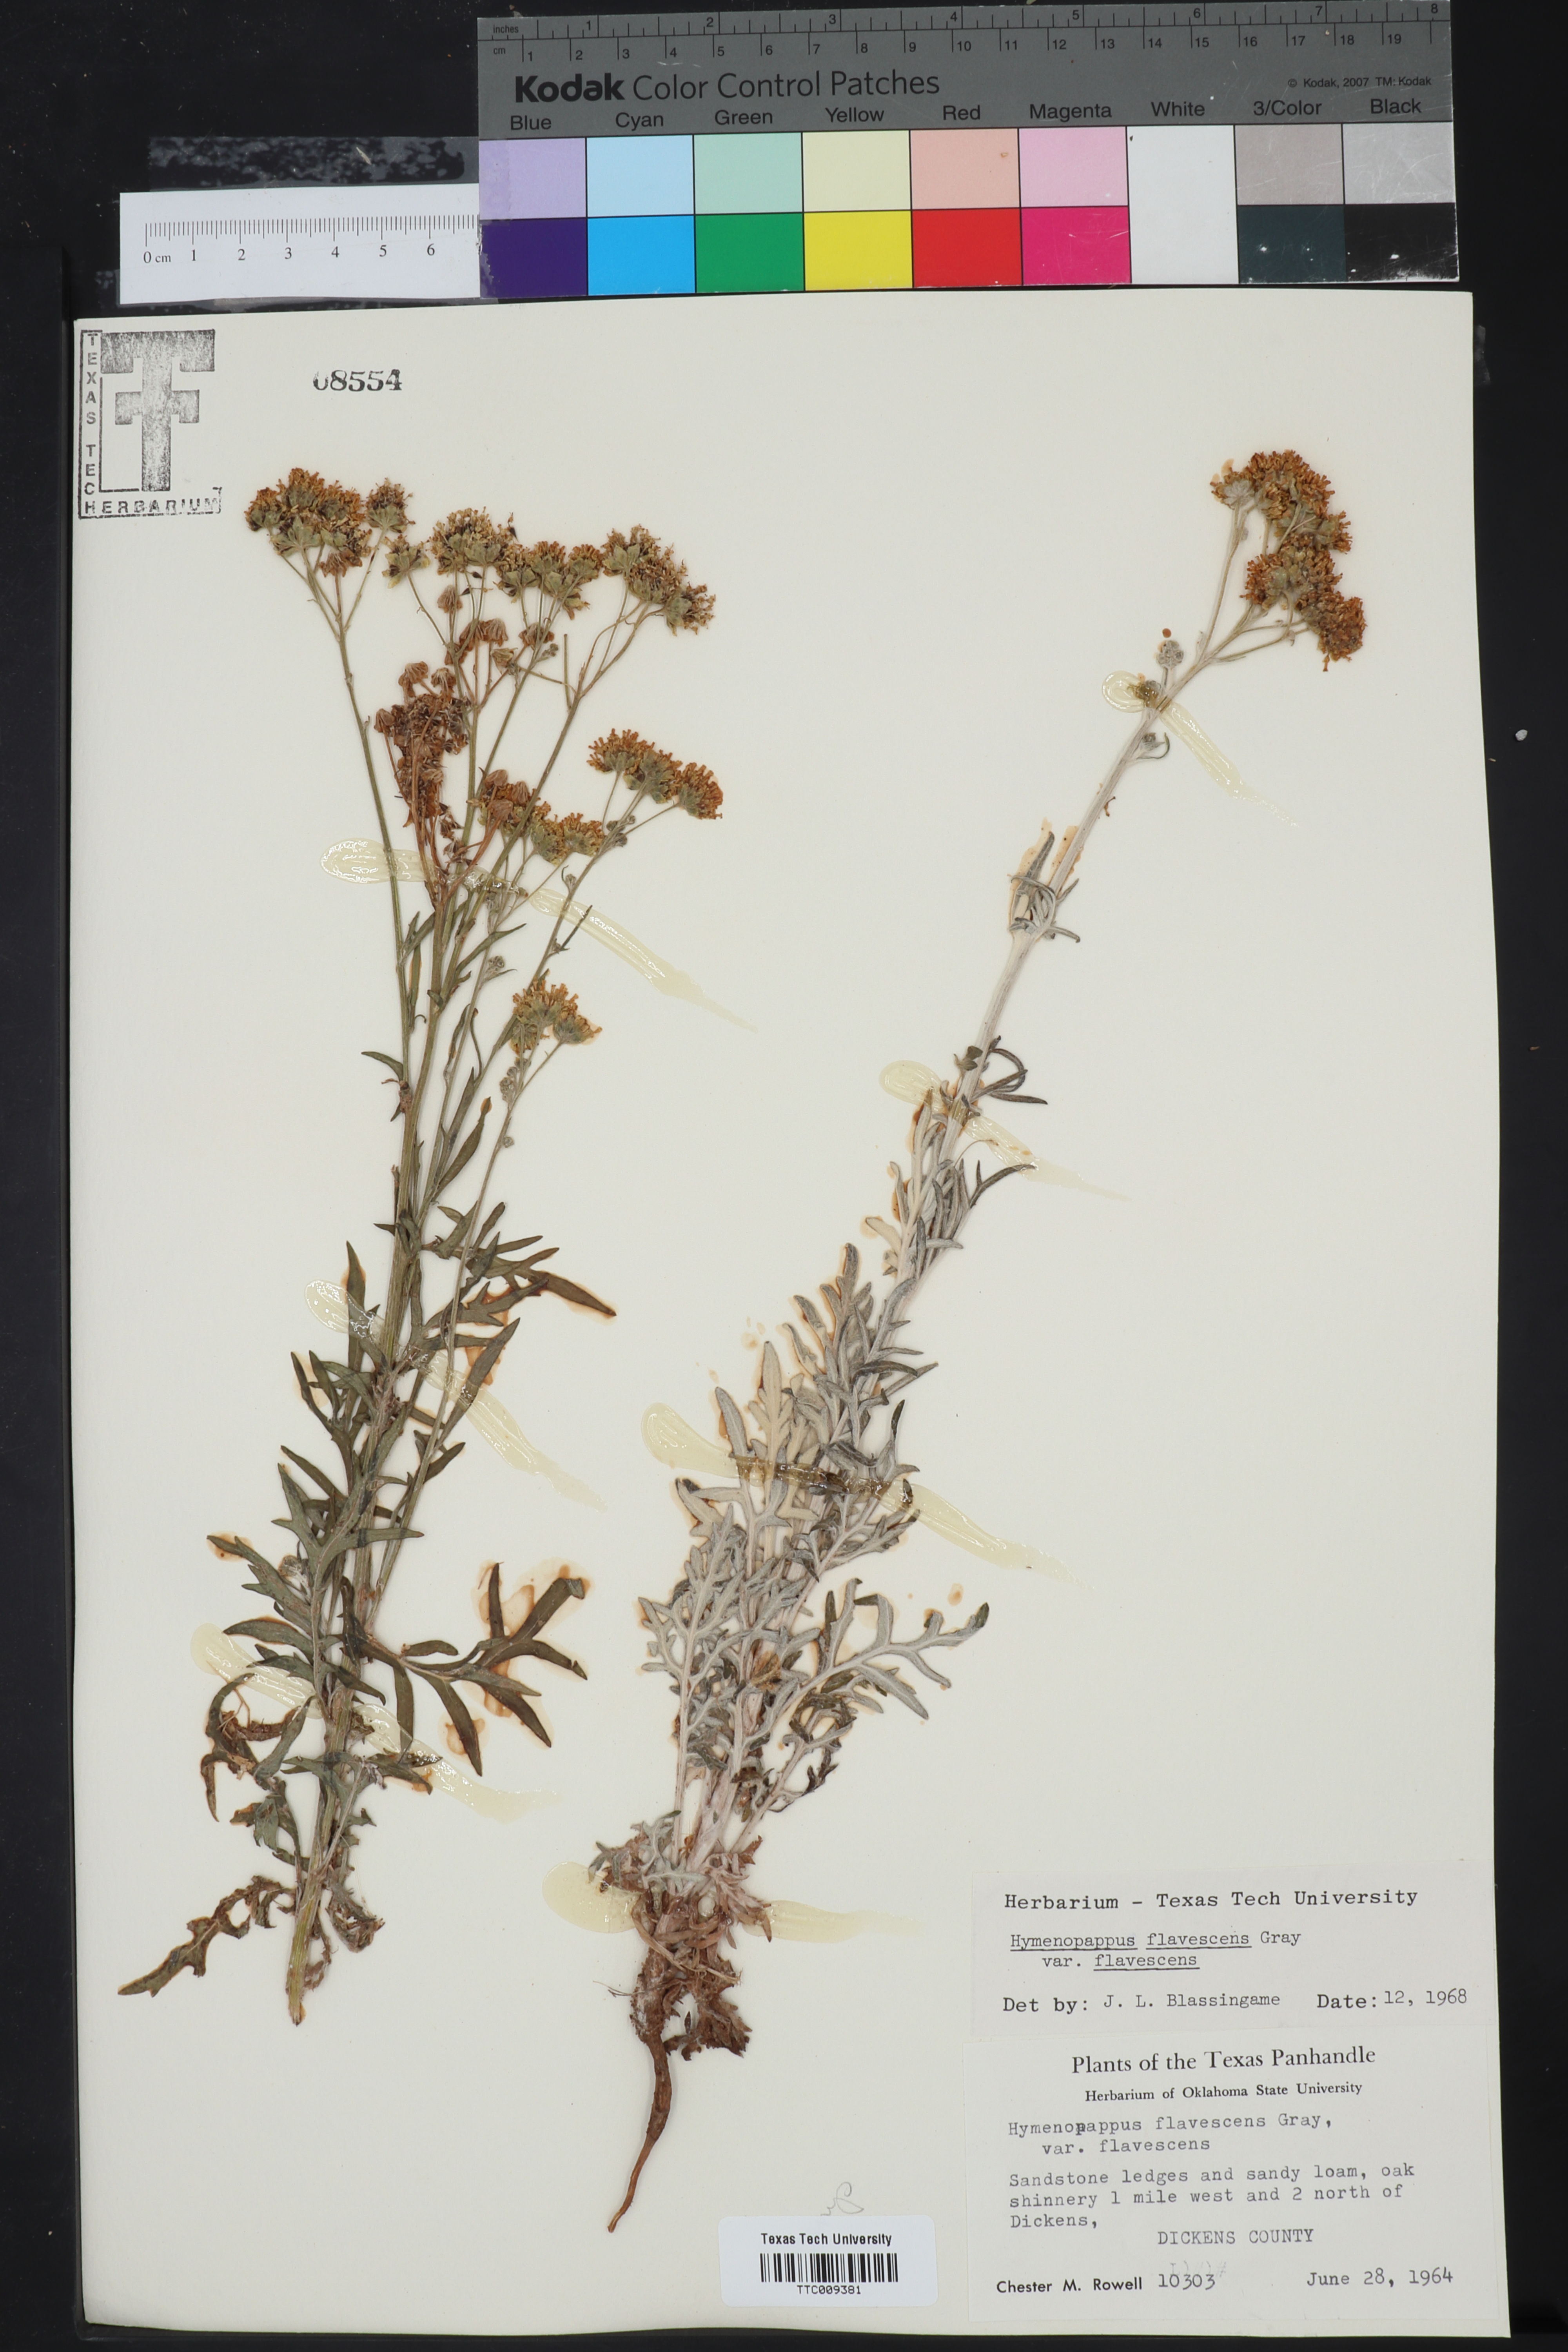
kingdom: Plantae
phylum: Tracheophyta
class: Magnoliopsida
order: Asterales
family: Asteraceae
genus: Hymenopappus
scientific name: Hymenopappus flavescens
